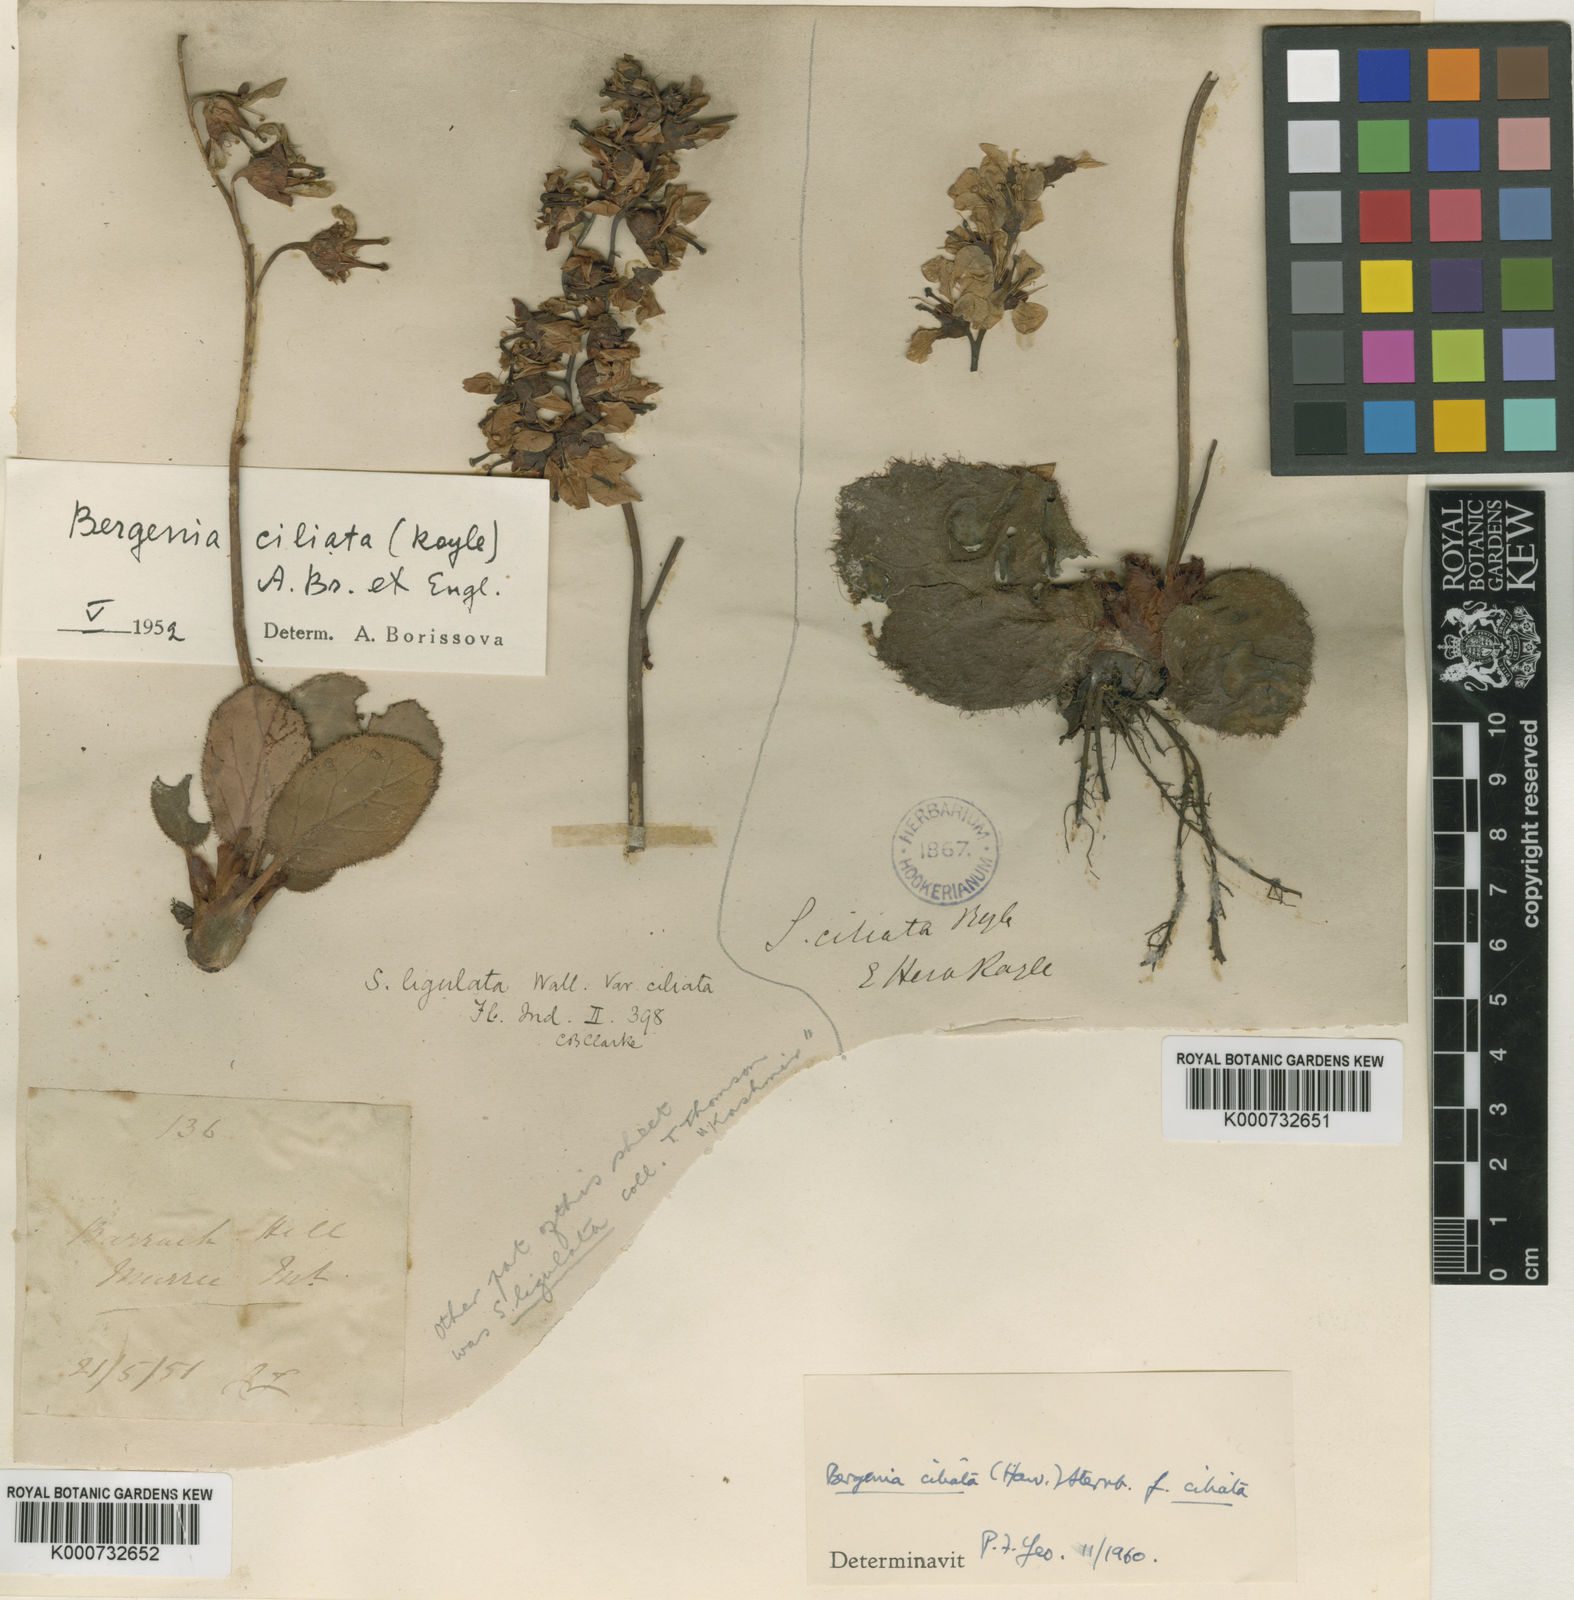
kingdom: Plantae
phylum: Tracheophyta
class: Magnoliopsida
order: Saxifragales
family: Saxifragaceae
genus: Bergenia
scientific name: Bergenia ciliata
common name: Hairy bergenia
